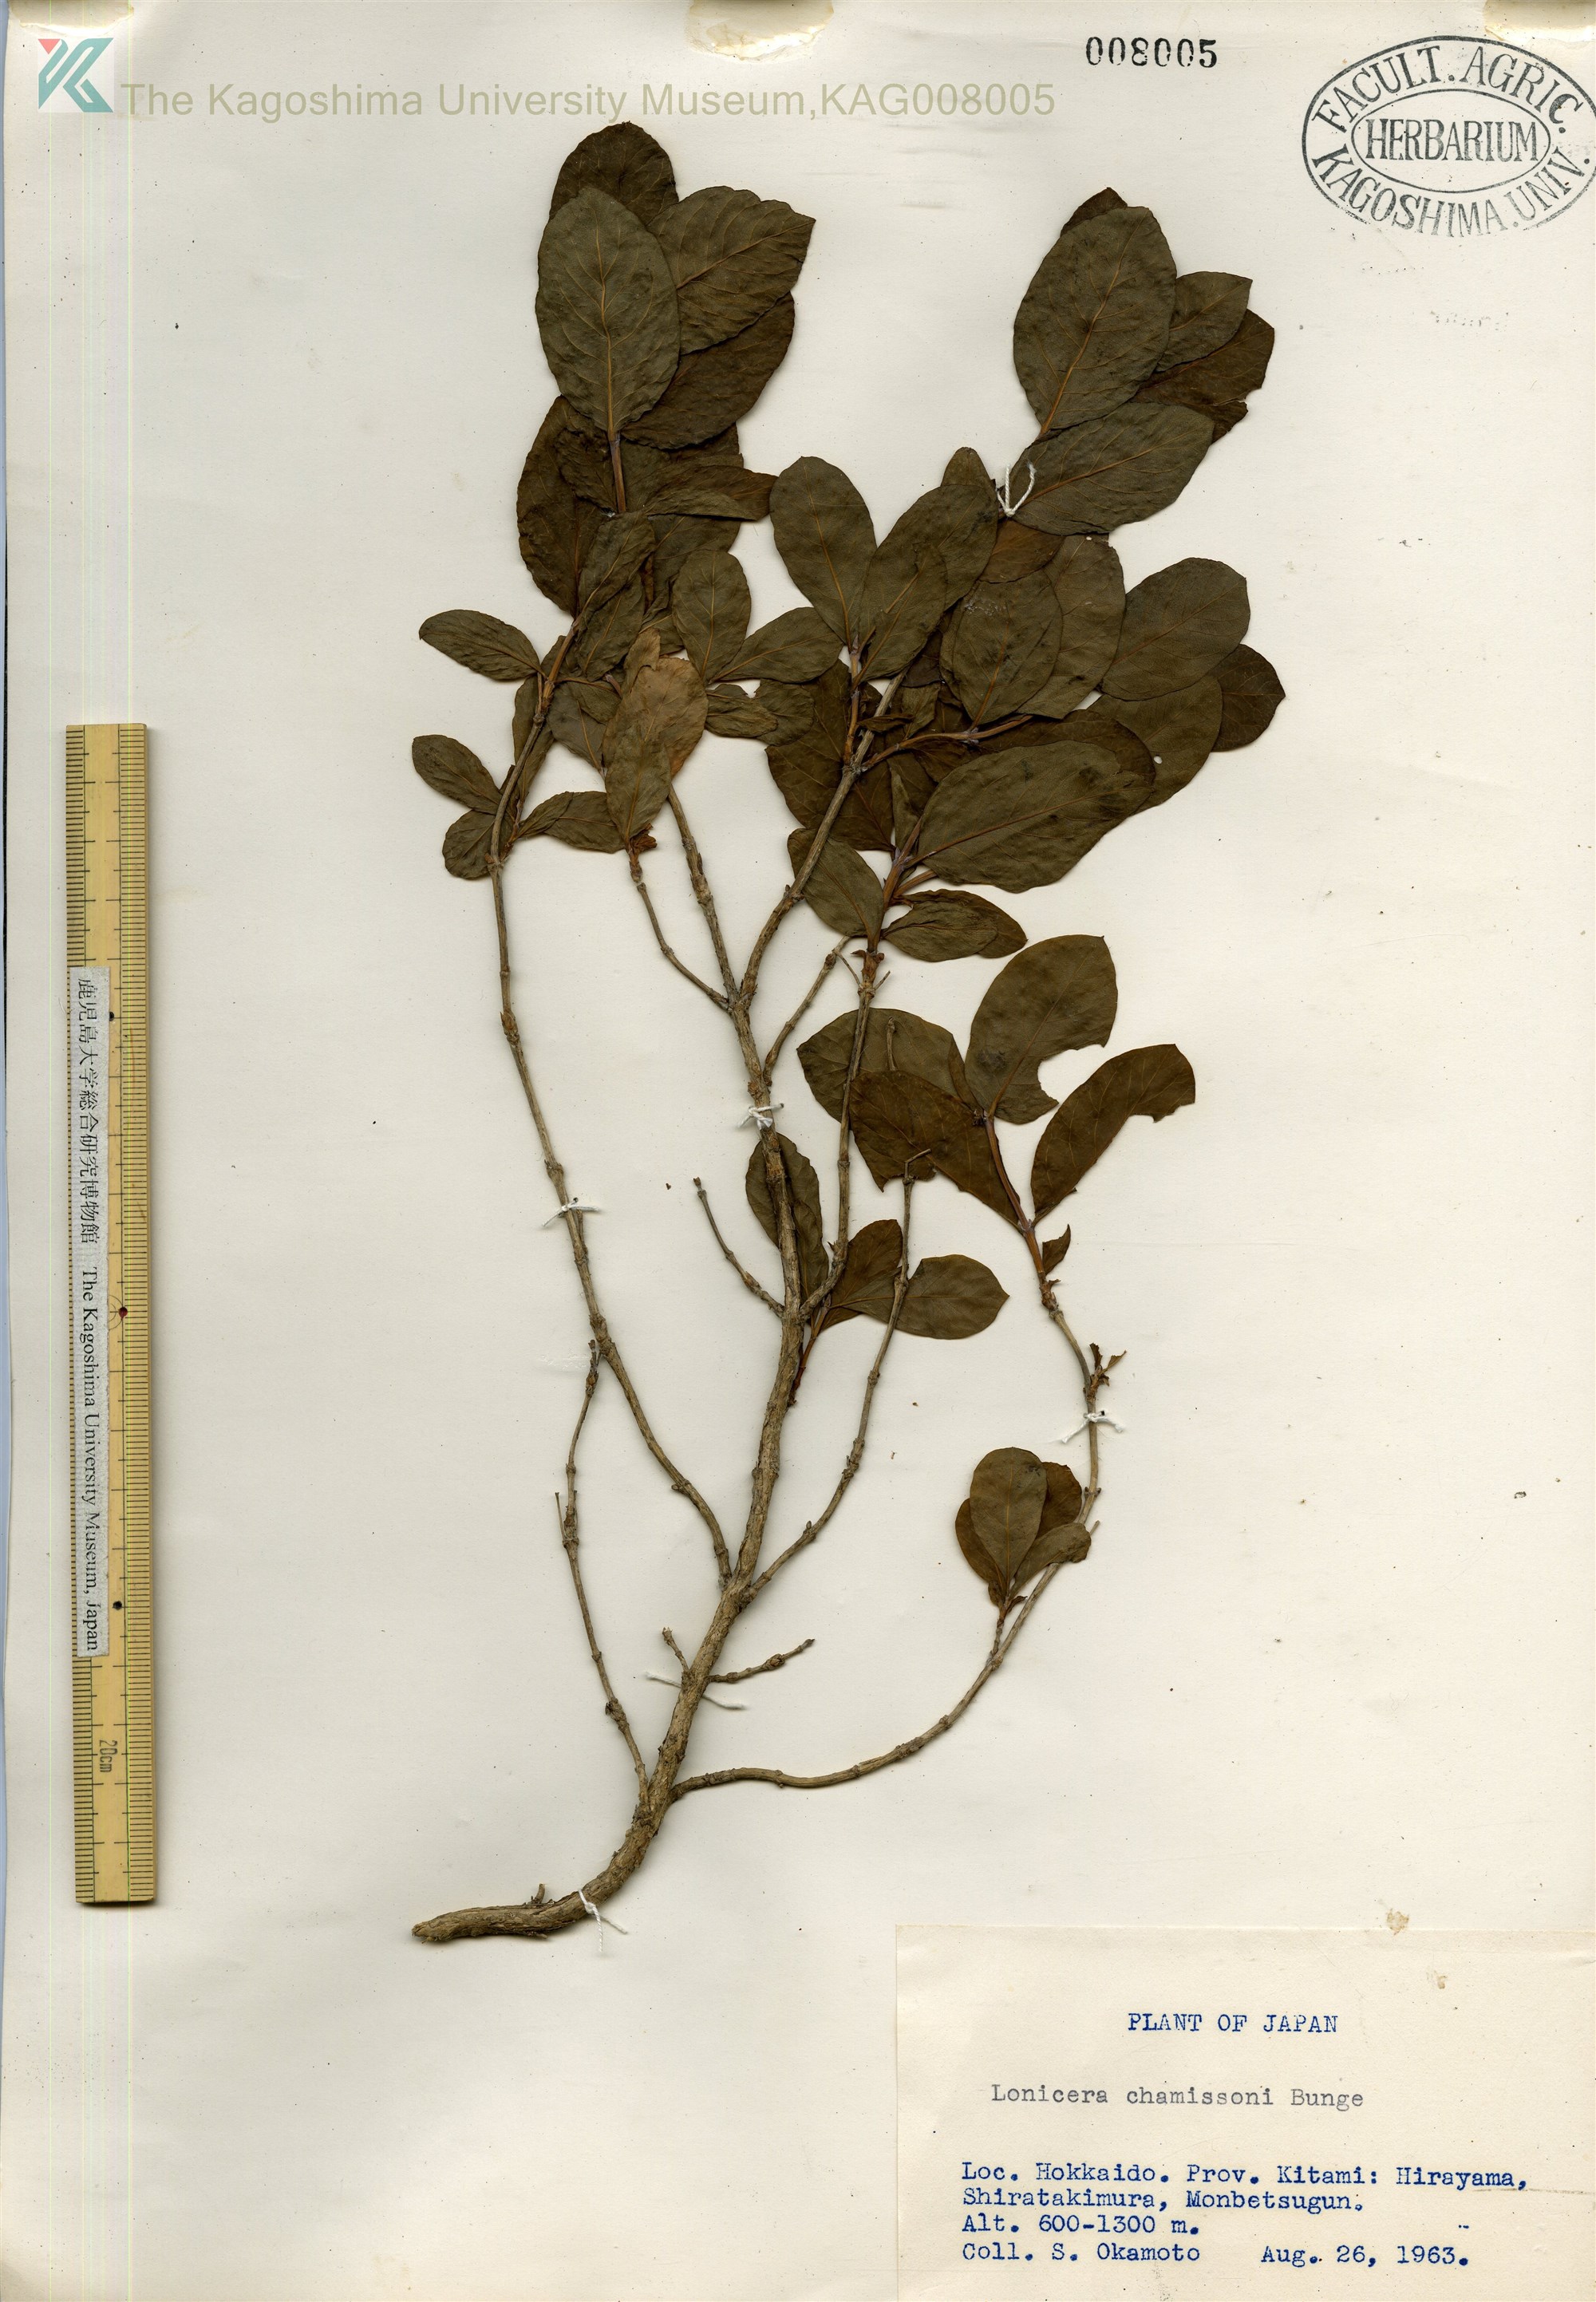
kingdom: Plantae
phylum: Tracheophyta
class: Magnoliopsida
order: Dipsacales
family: Caprifoliaceae
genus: Lonicera
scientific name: Lonicera chamissoi
